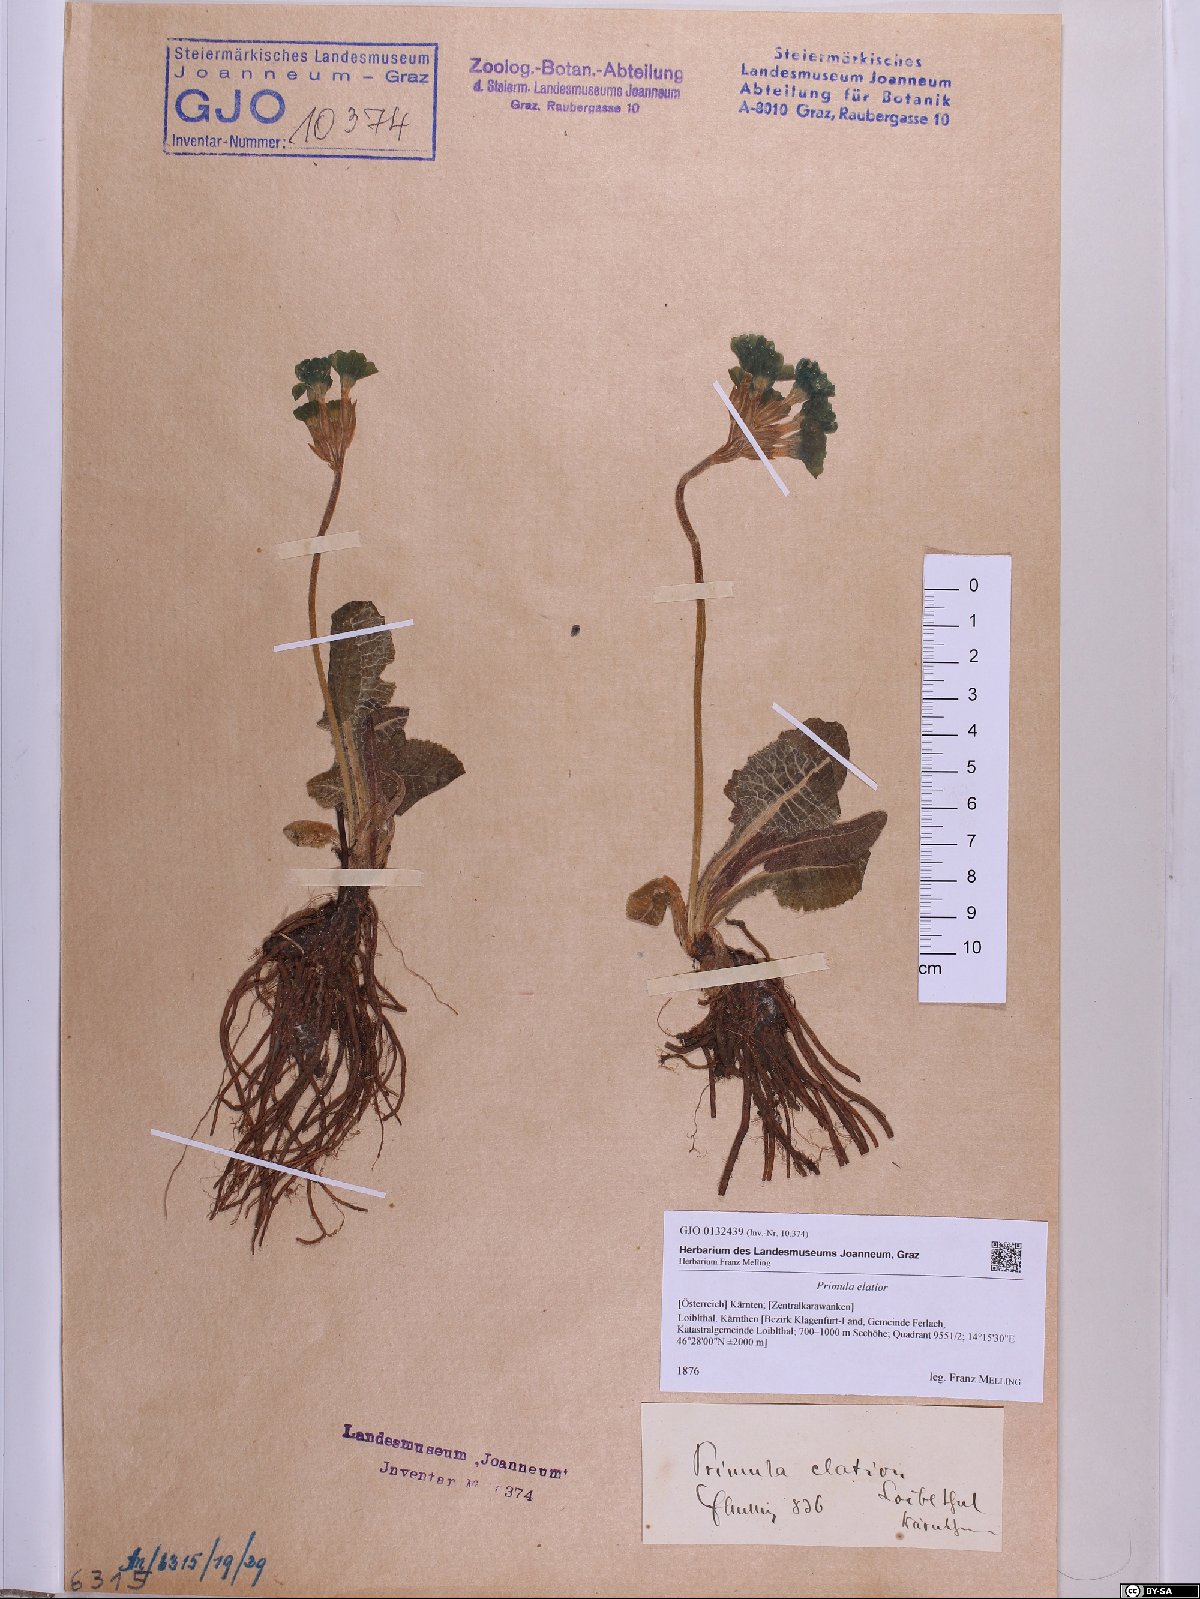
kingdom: Plantae
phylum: Tracheophyta
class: Magnoliopsida
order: Ericales
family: Primulaceae
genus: Primula
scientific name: Primula elatior
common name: Oxlip
